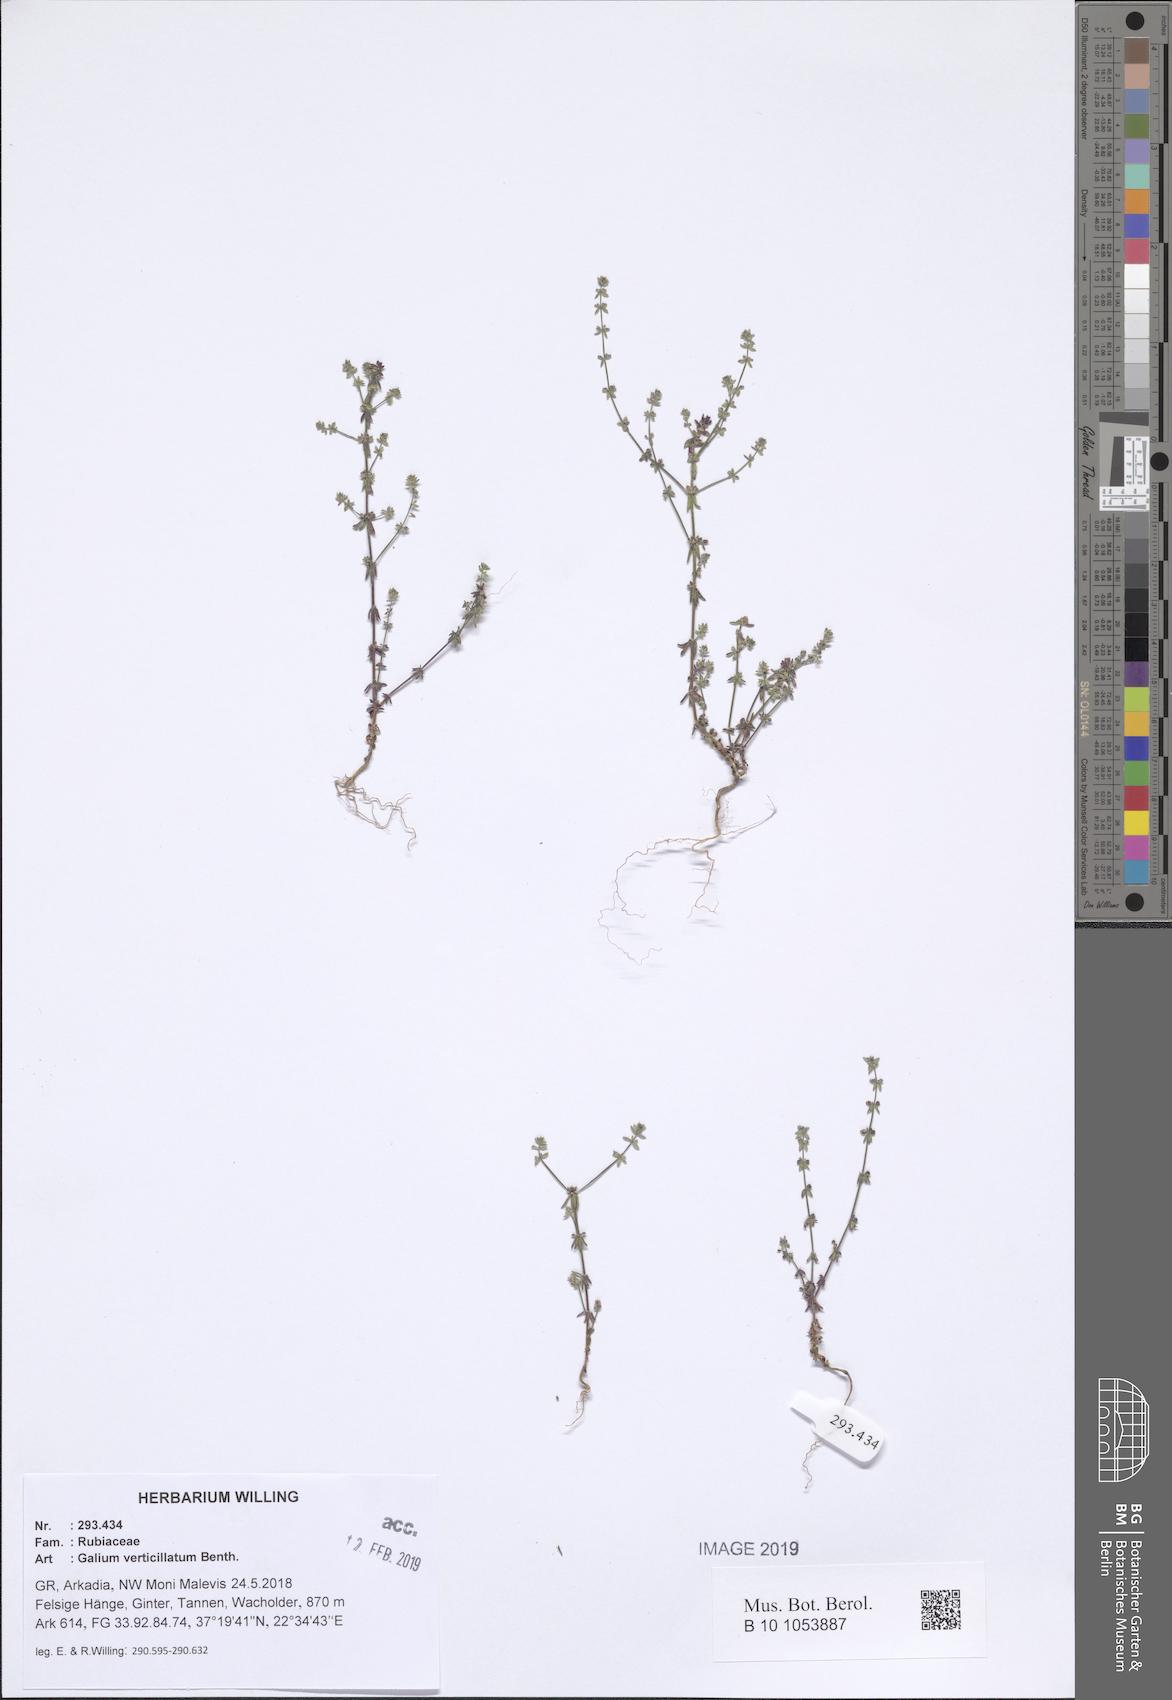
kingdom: Plantae
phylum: Tracheophyta
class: Magnoliopsida
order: Gentianales
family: Rubiaceae
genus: Galium
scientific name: Galium verticillatum
